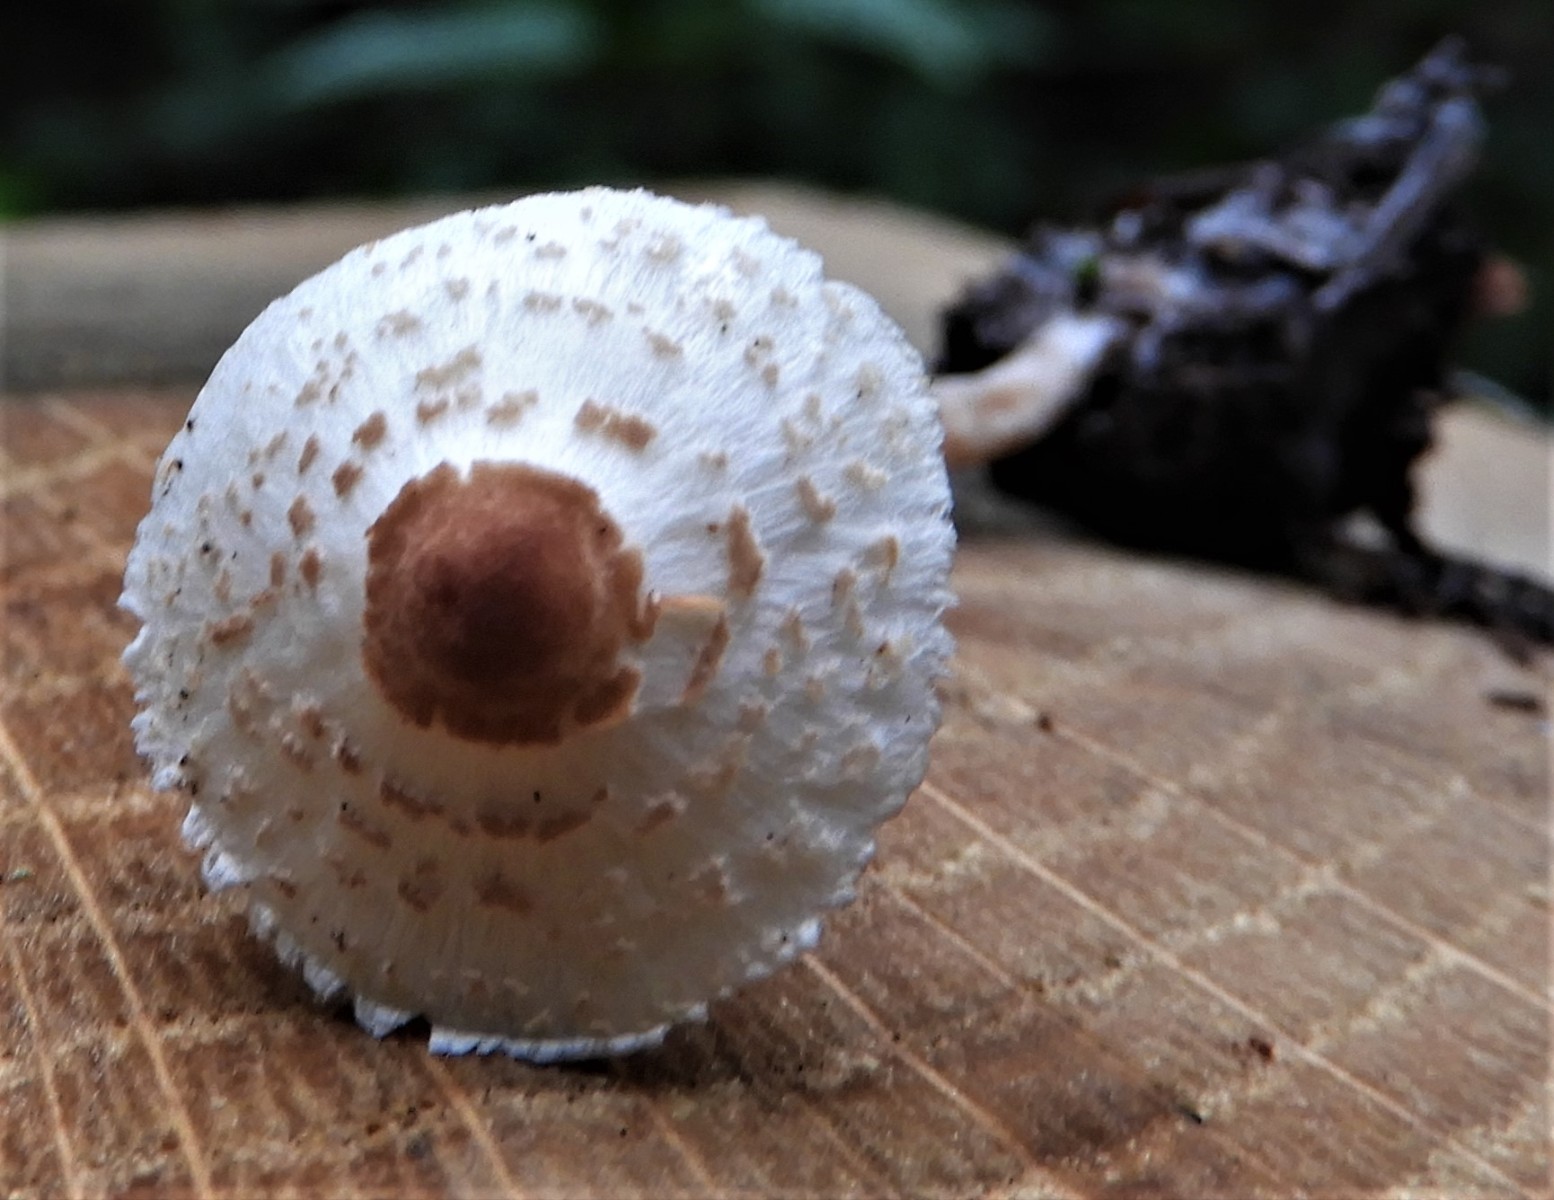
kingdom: Fungi
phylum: Basidiomycota
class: Agaricomycetes
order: Agaricales
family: Agaricaceae
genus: Lepiota
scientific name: Lepiota cristata
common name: stinkende parasolhat
